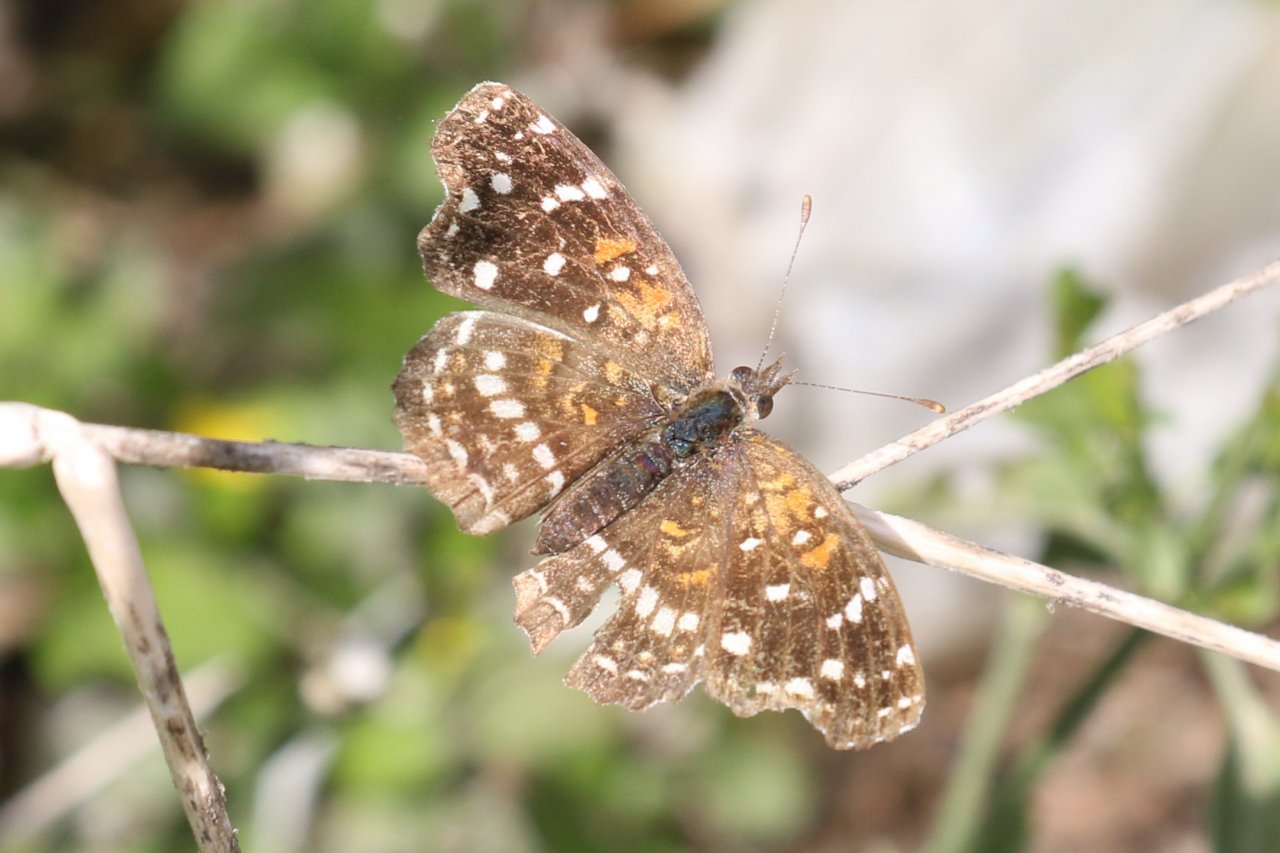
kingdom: Animalia
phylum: Arthropoda
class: Insecta
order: Lepidoptera
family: Nymphalidae
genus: Anthanassa
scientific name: Anthanassa texana
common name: Texan Crescent
